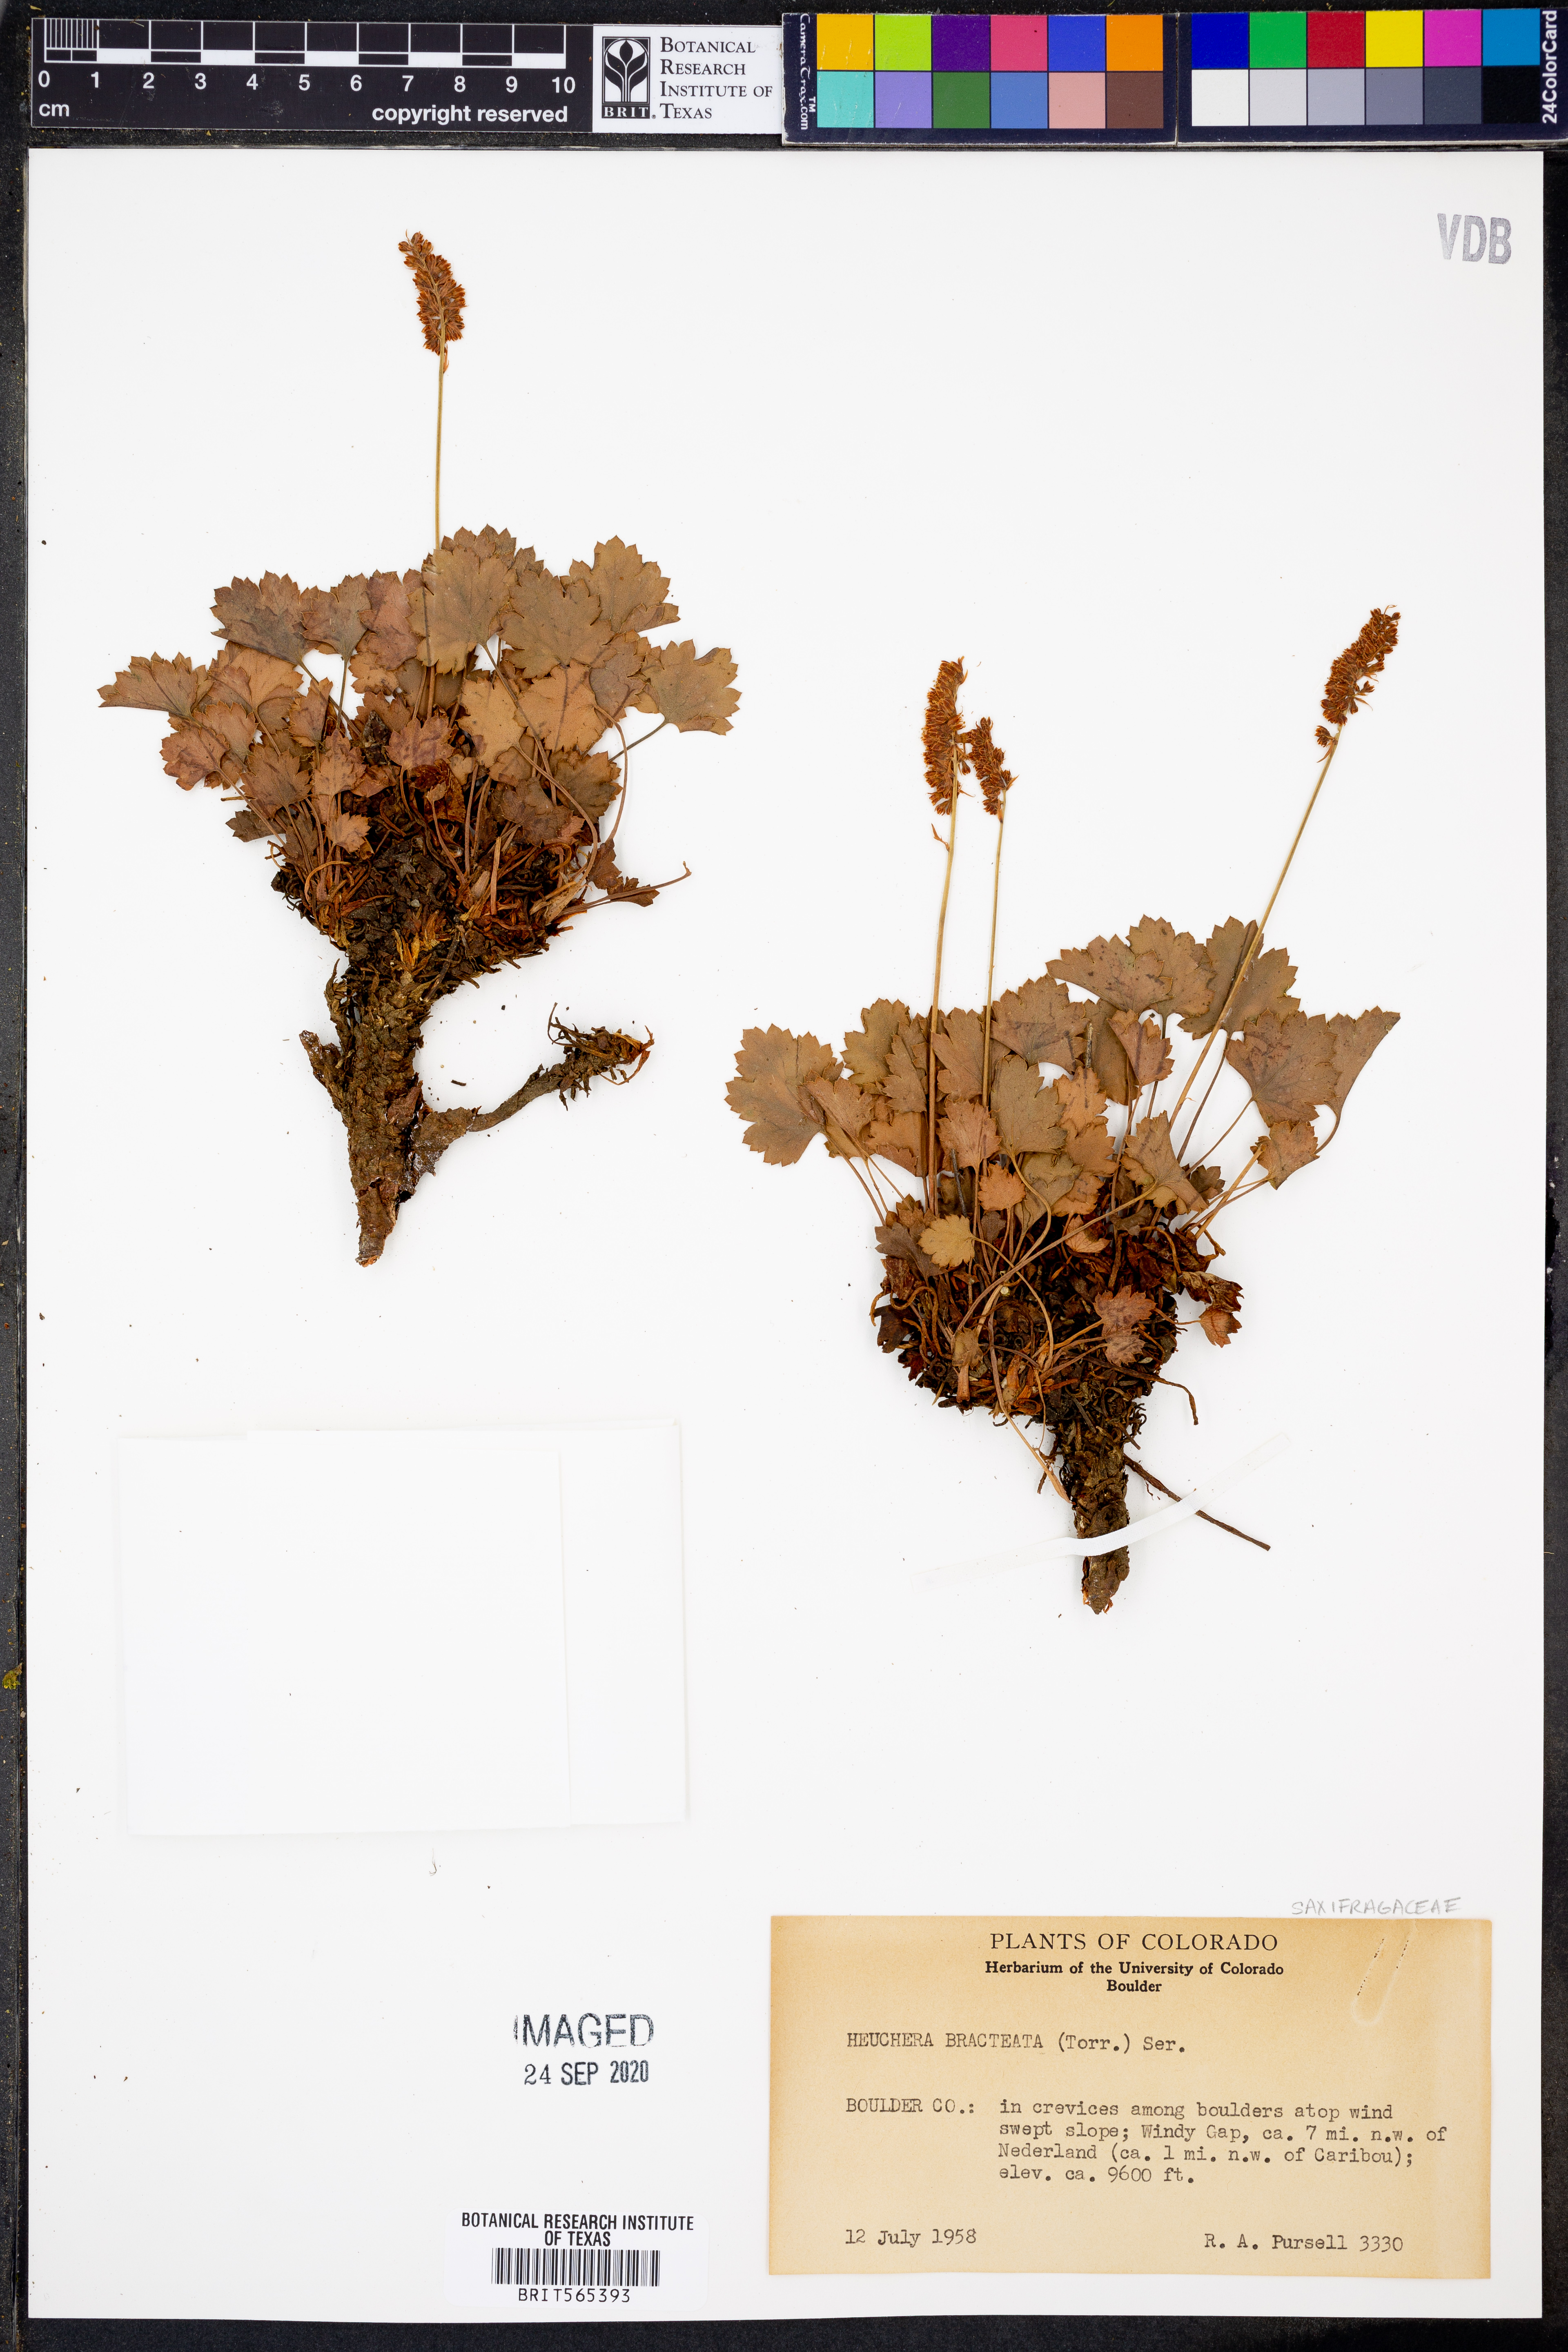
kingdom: Plantae
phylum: Tracheophyta
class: Magnoliopsida
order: Saxifragales
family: Saxifragaceae
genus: Heuchera
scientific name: Heuchera bracteata
